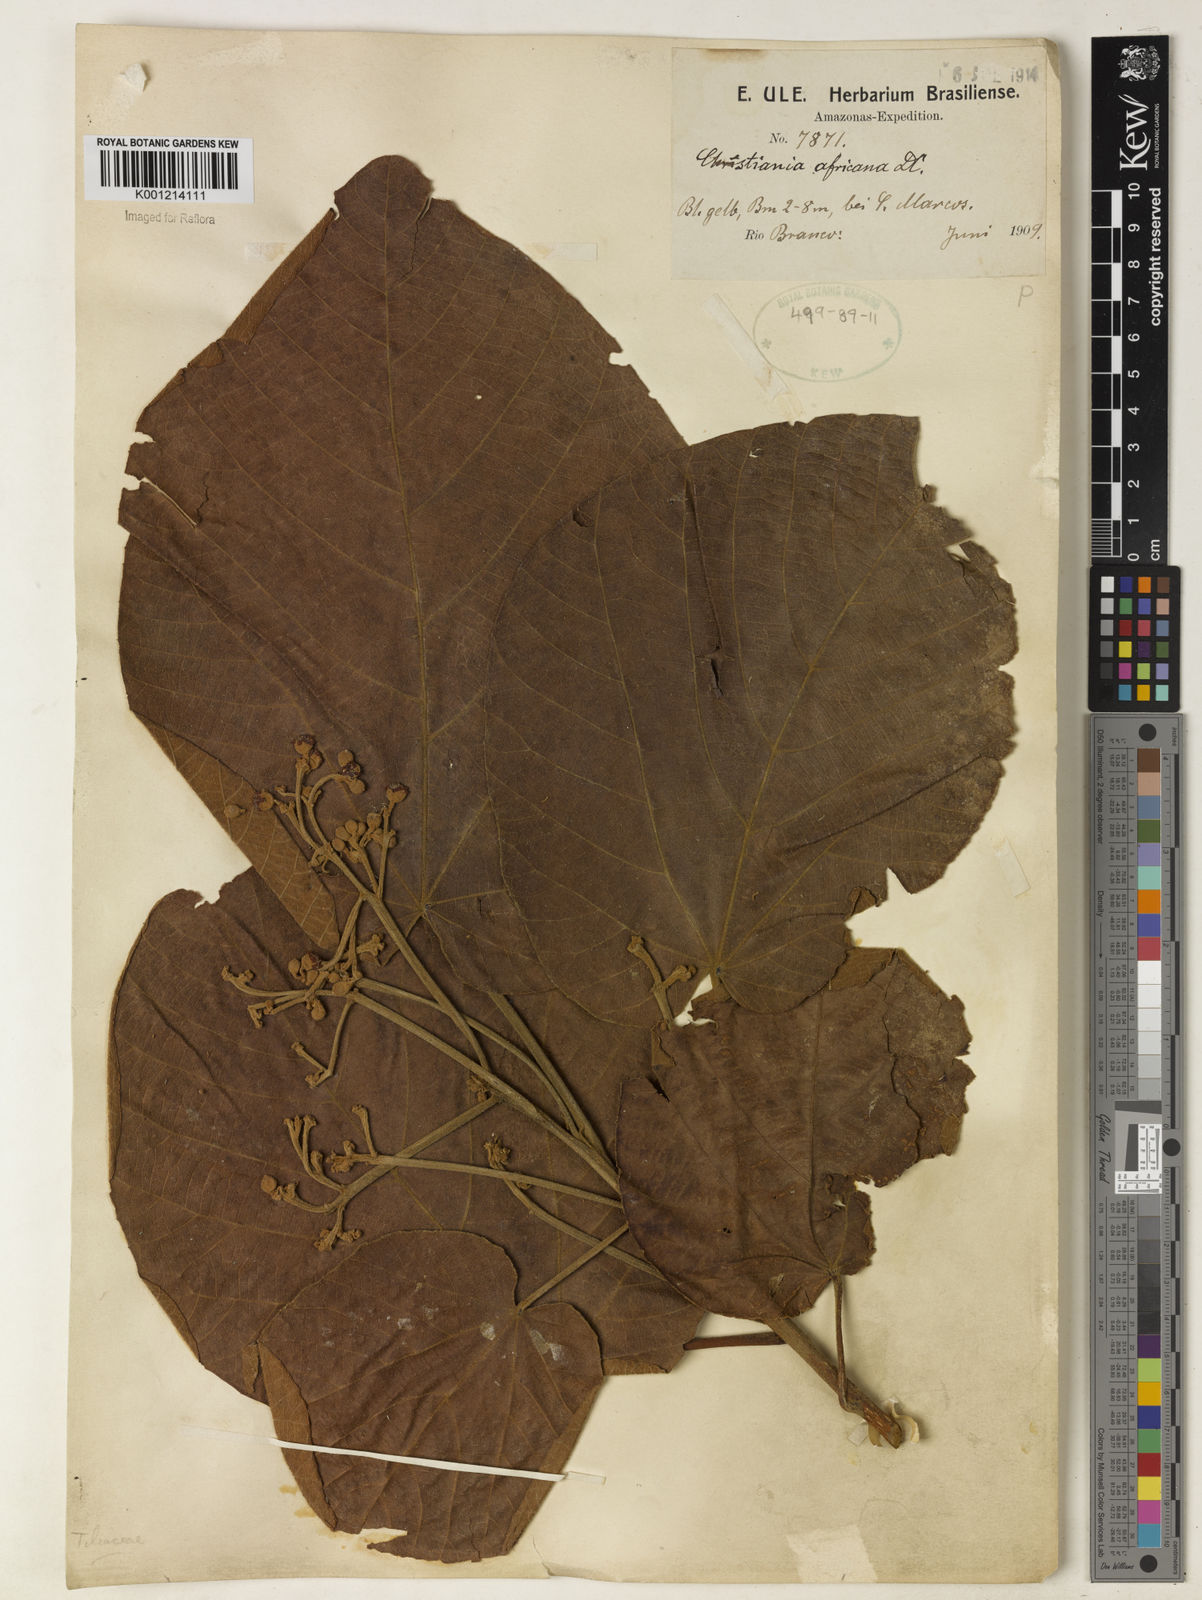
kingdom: Plantae
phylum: Tracheophyta
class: Magnoliopsida
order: Malvales
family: Malvaceae
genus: Christiana
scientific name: Christiana africana
